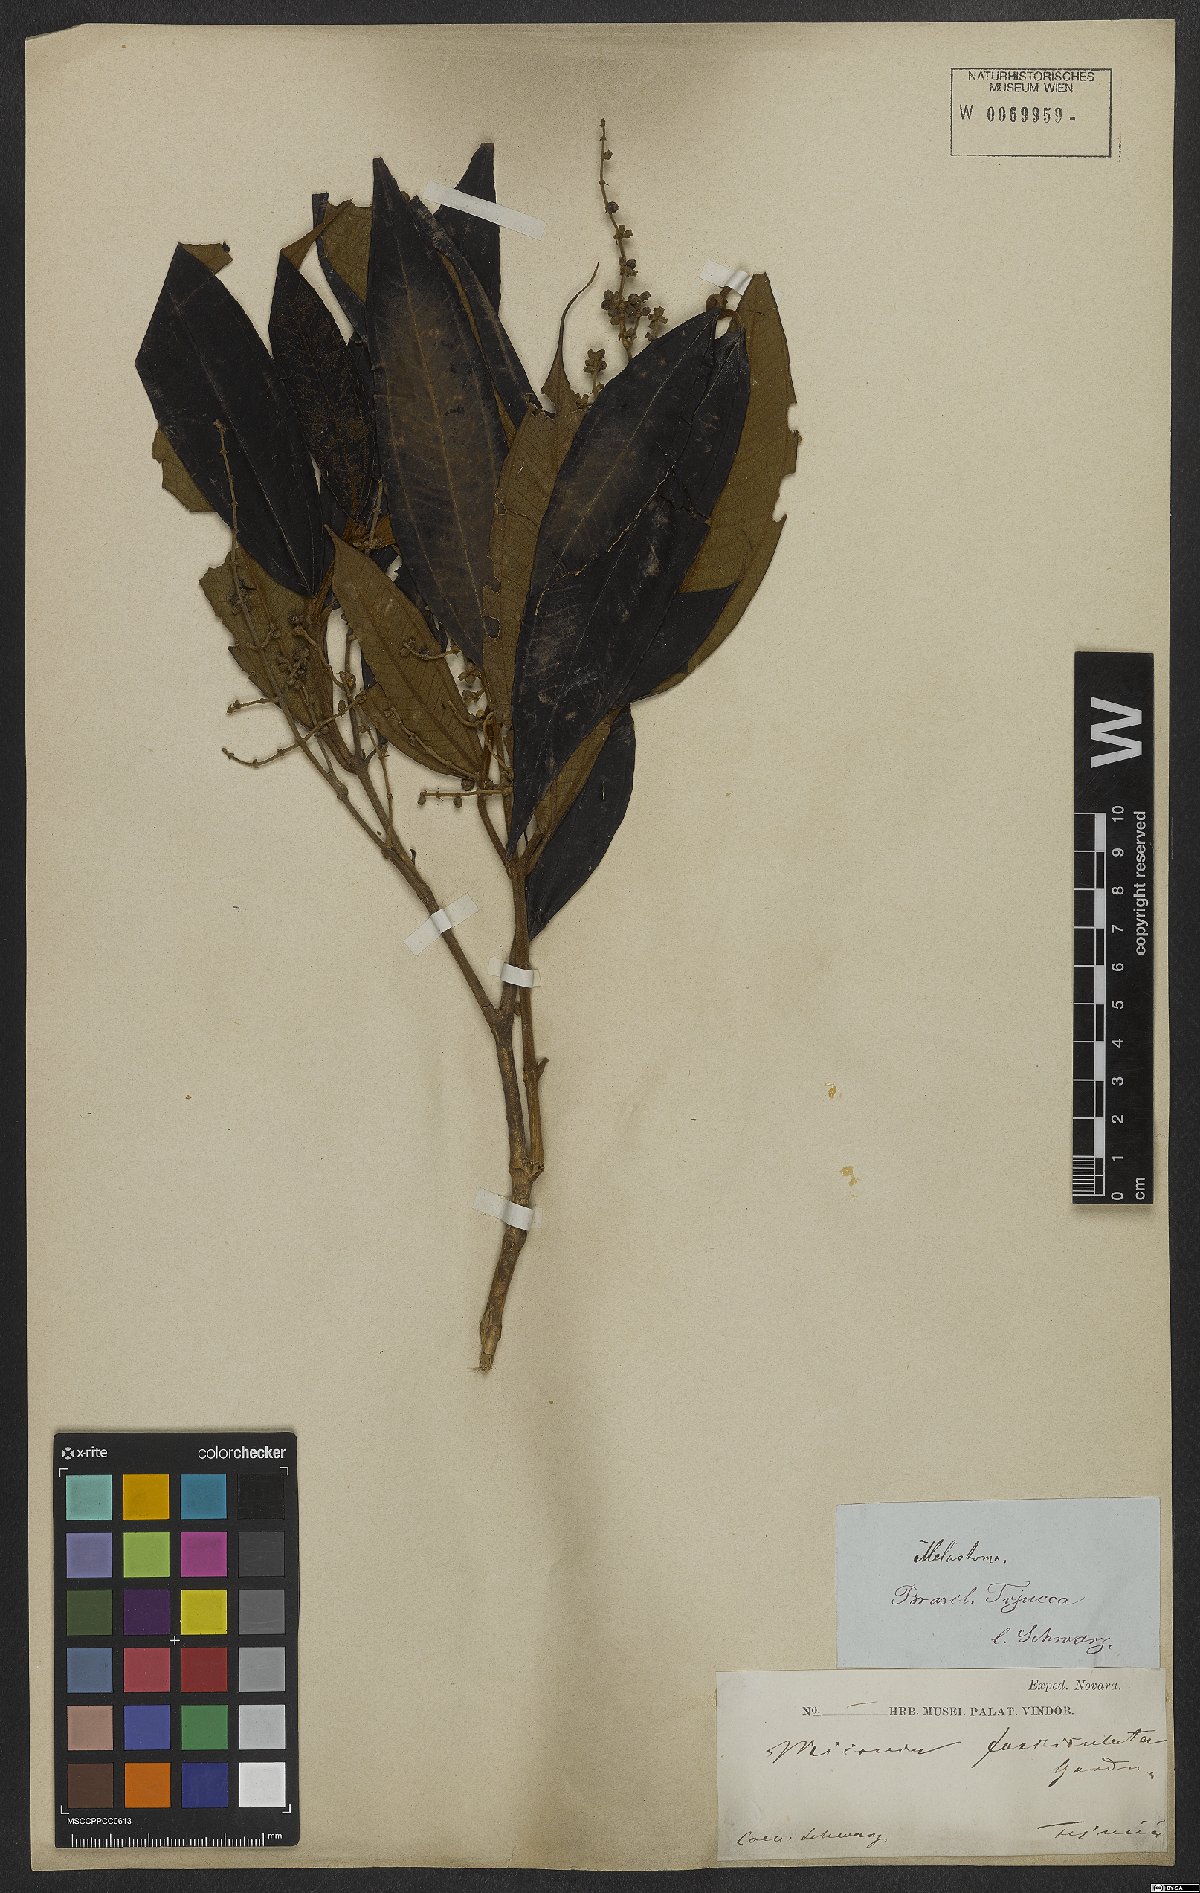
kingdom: Plantae
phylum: Tracheophyta
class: Magnoliopsida
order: Myrtales
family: Melastomataceae
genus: Miconia
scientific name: Miconia fasciculata
